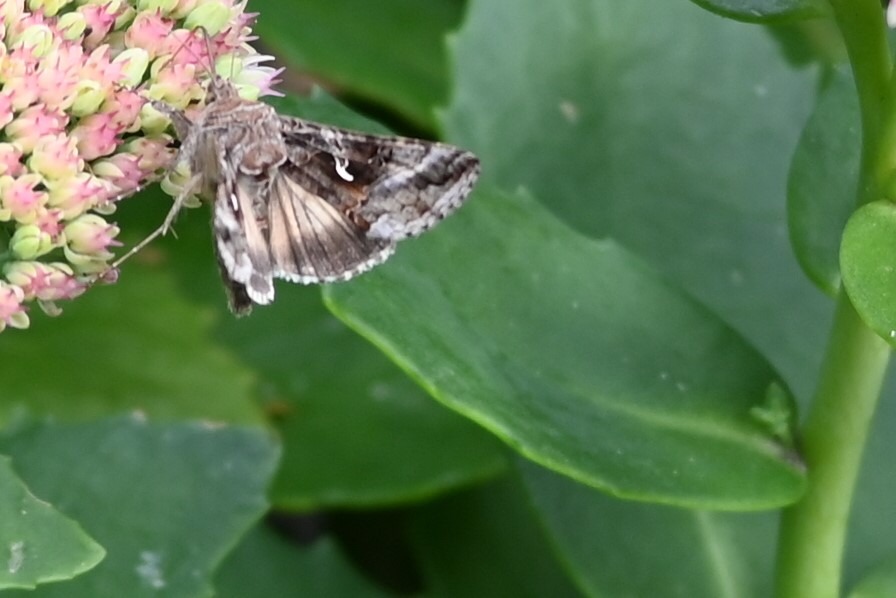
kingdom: Animalia
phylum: Arthropoda
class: Insecta
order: Lepidoptera
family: Noctuidae
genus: Autographa
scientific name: Autographa gamma
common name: Gammaugle
